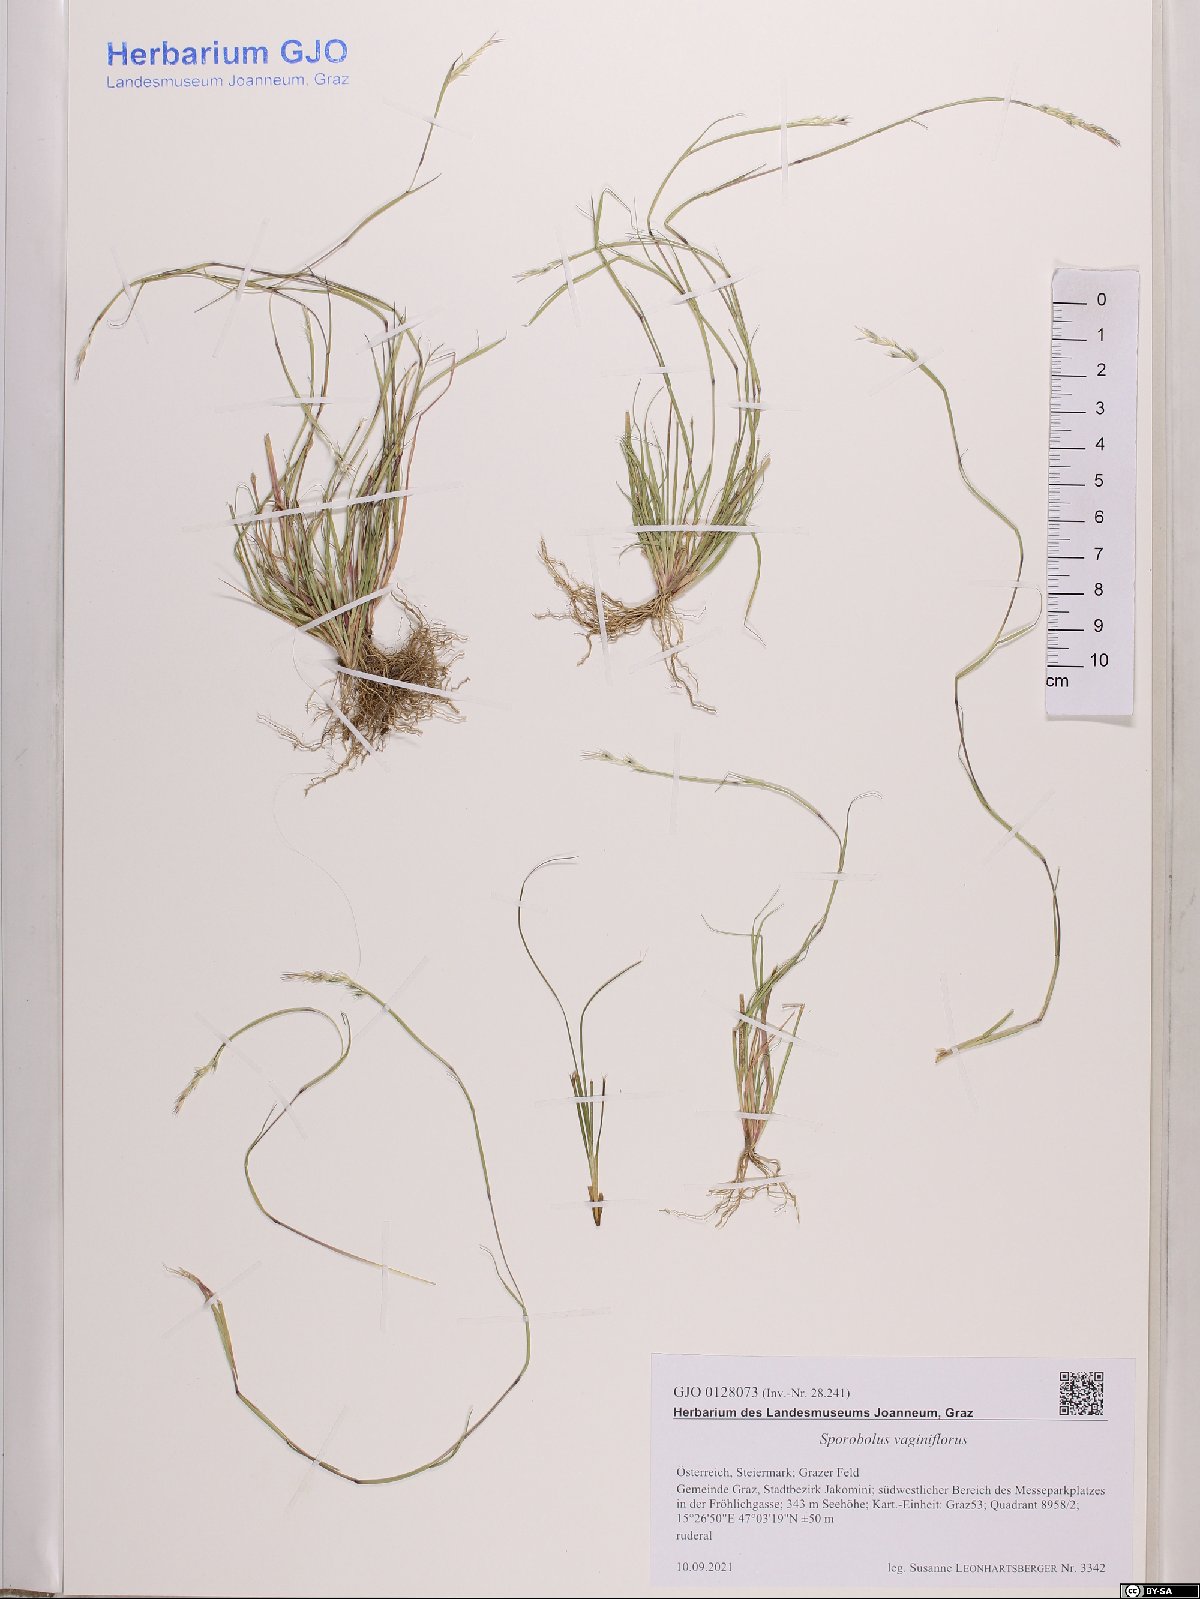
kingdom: Plantae
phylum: Tracheophyta
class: Liliopsida
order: Poales
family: Poaceae
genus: Sporobolus
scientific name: Sporobolus vaginiflorus
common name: Poverty dropseed
